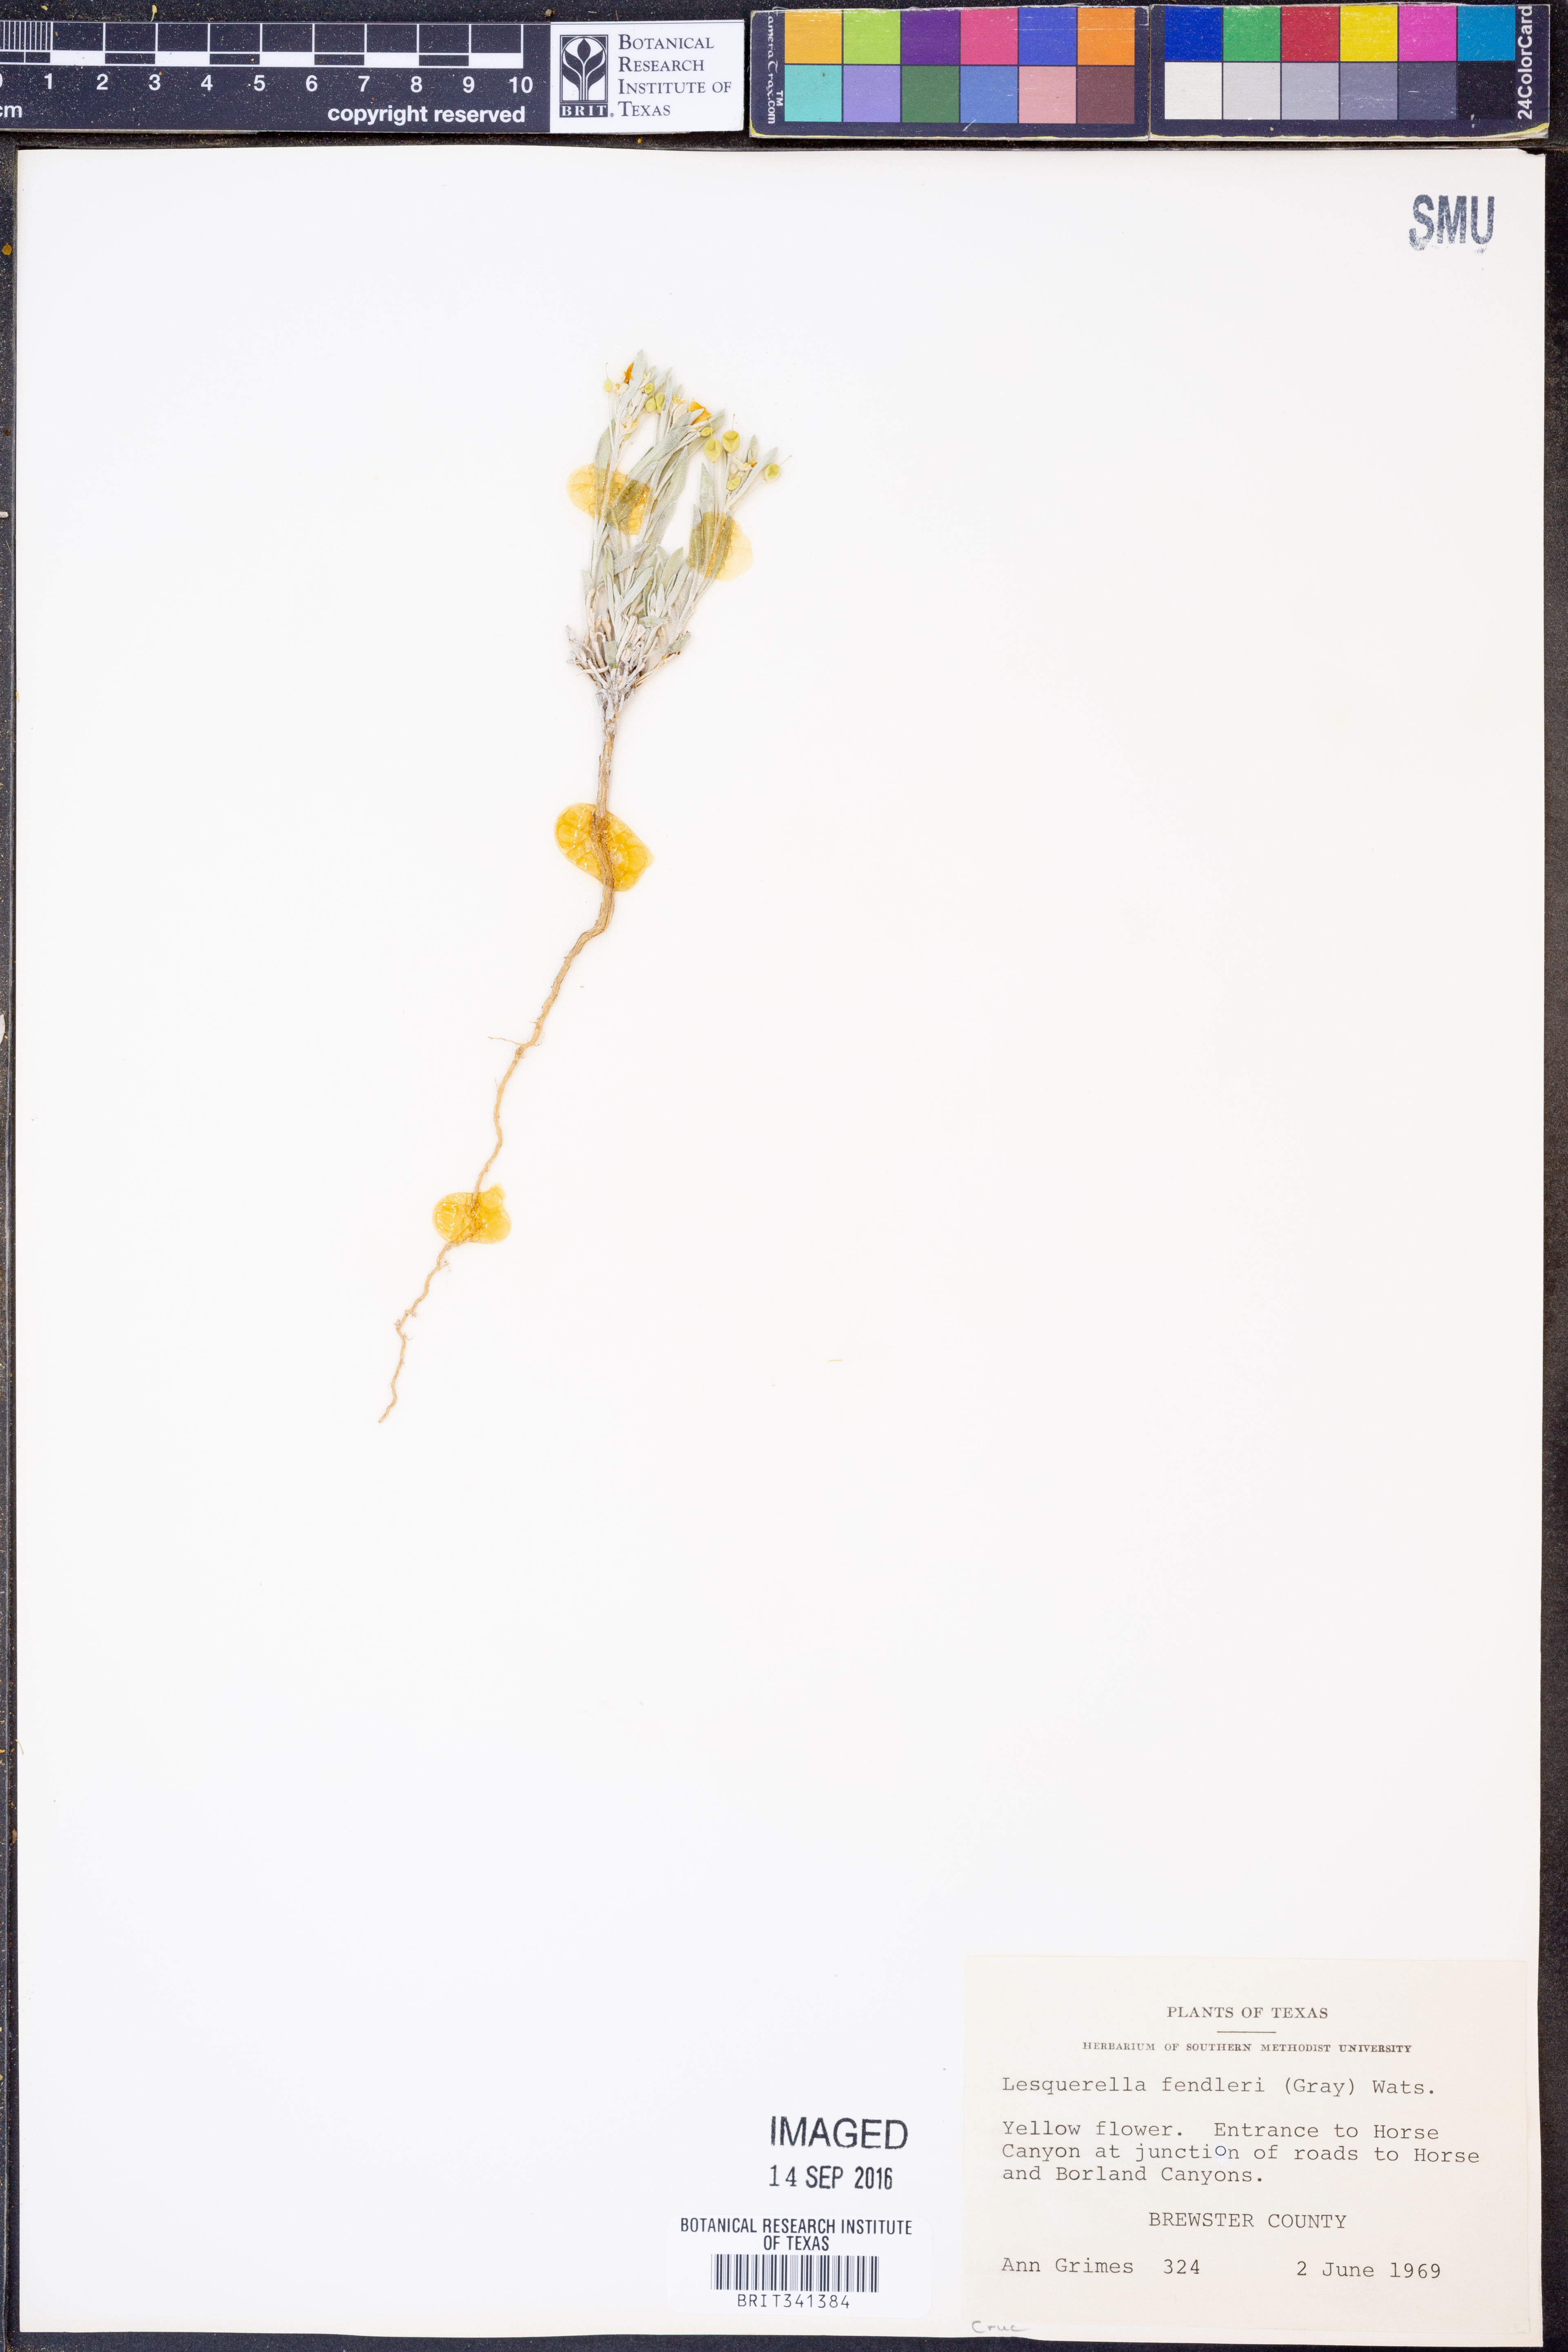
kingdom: Plantae
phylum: Tracheophyta
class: Magnoliopsida
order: Brassicales
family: Brassicaceae
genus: Physaria
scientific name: Physaria fendleri
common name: Fendler's bladderpod
